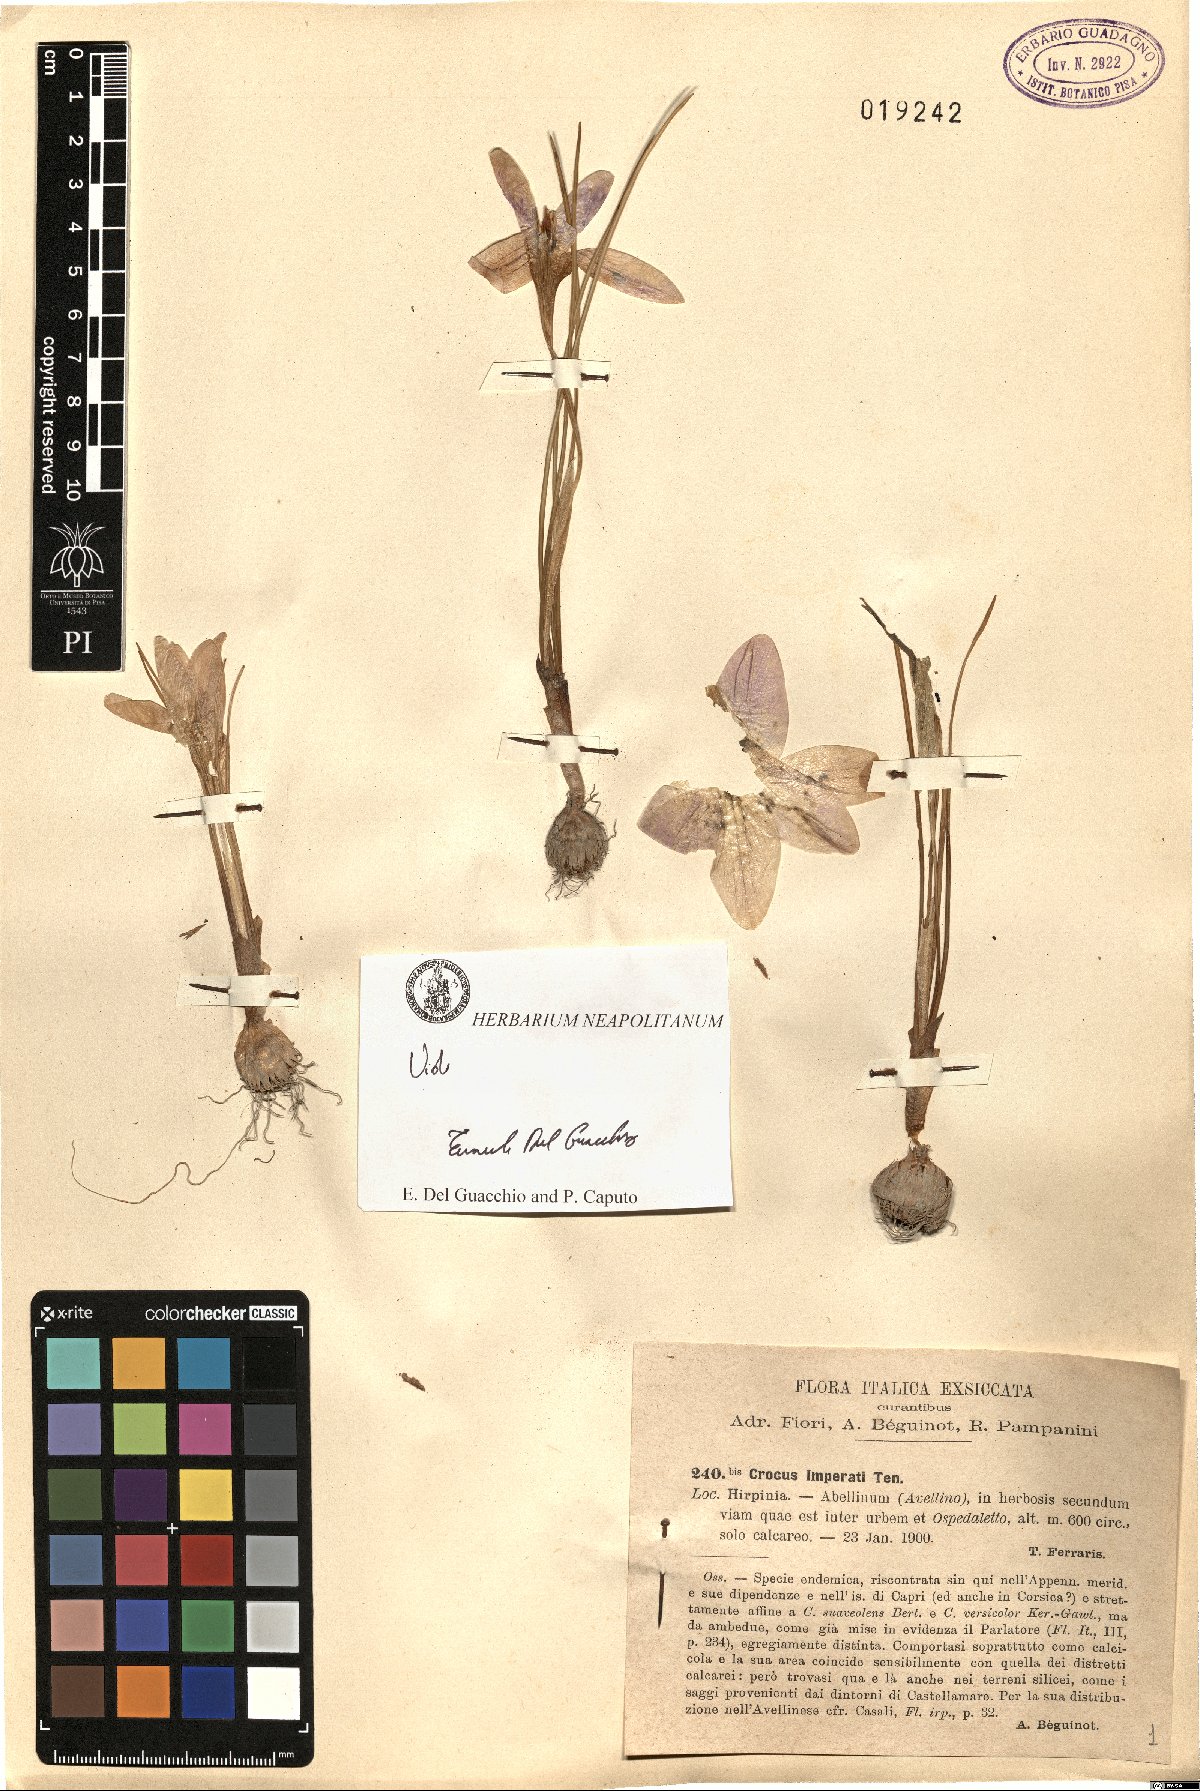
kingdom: Plantae
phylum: Tracheophyta
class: Liliopsida
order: Asparagales
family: Iridaceae
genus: Crocus
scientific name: Crocus imperati
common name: Early crocus
